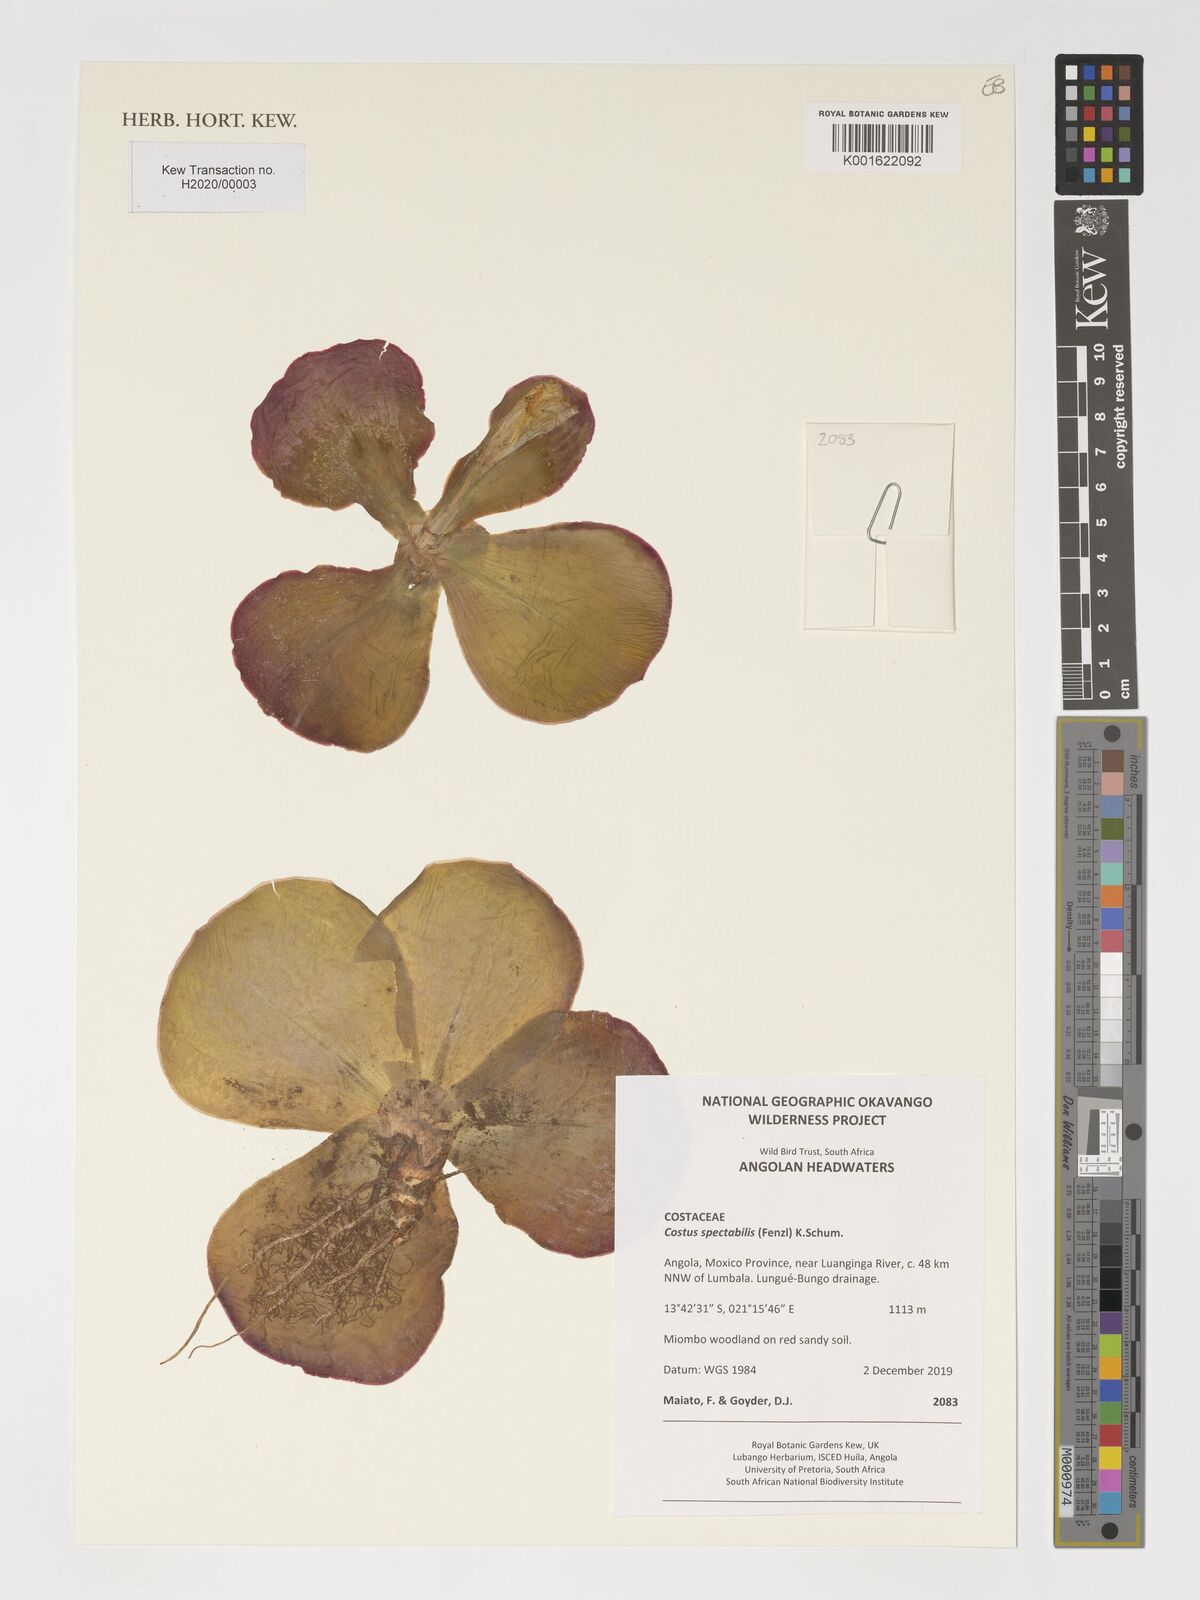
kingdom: Plantae
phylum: Tracheophyta
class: Liliopsida
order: Zingiberales
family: Costaceae
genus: Costus
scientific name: Costus spectabilis
